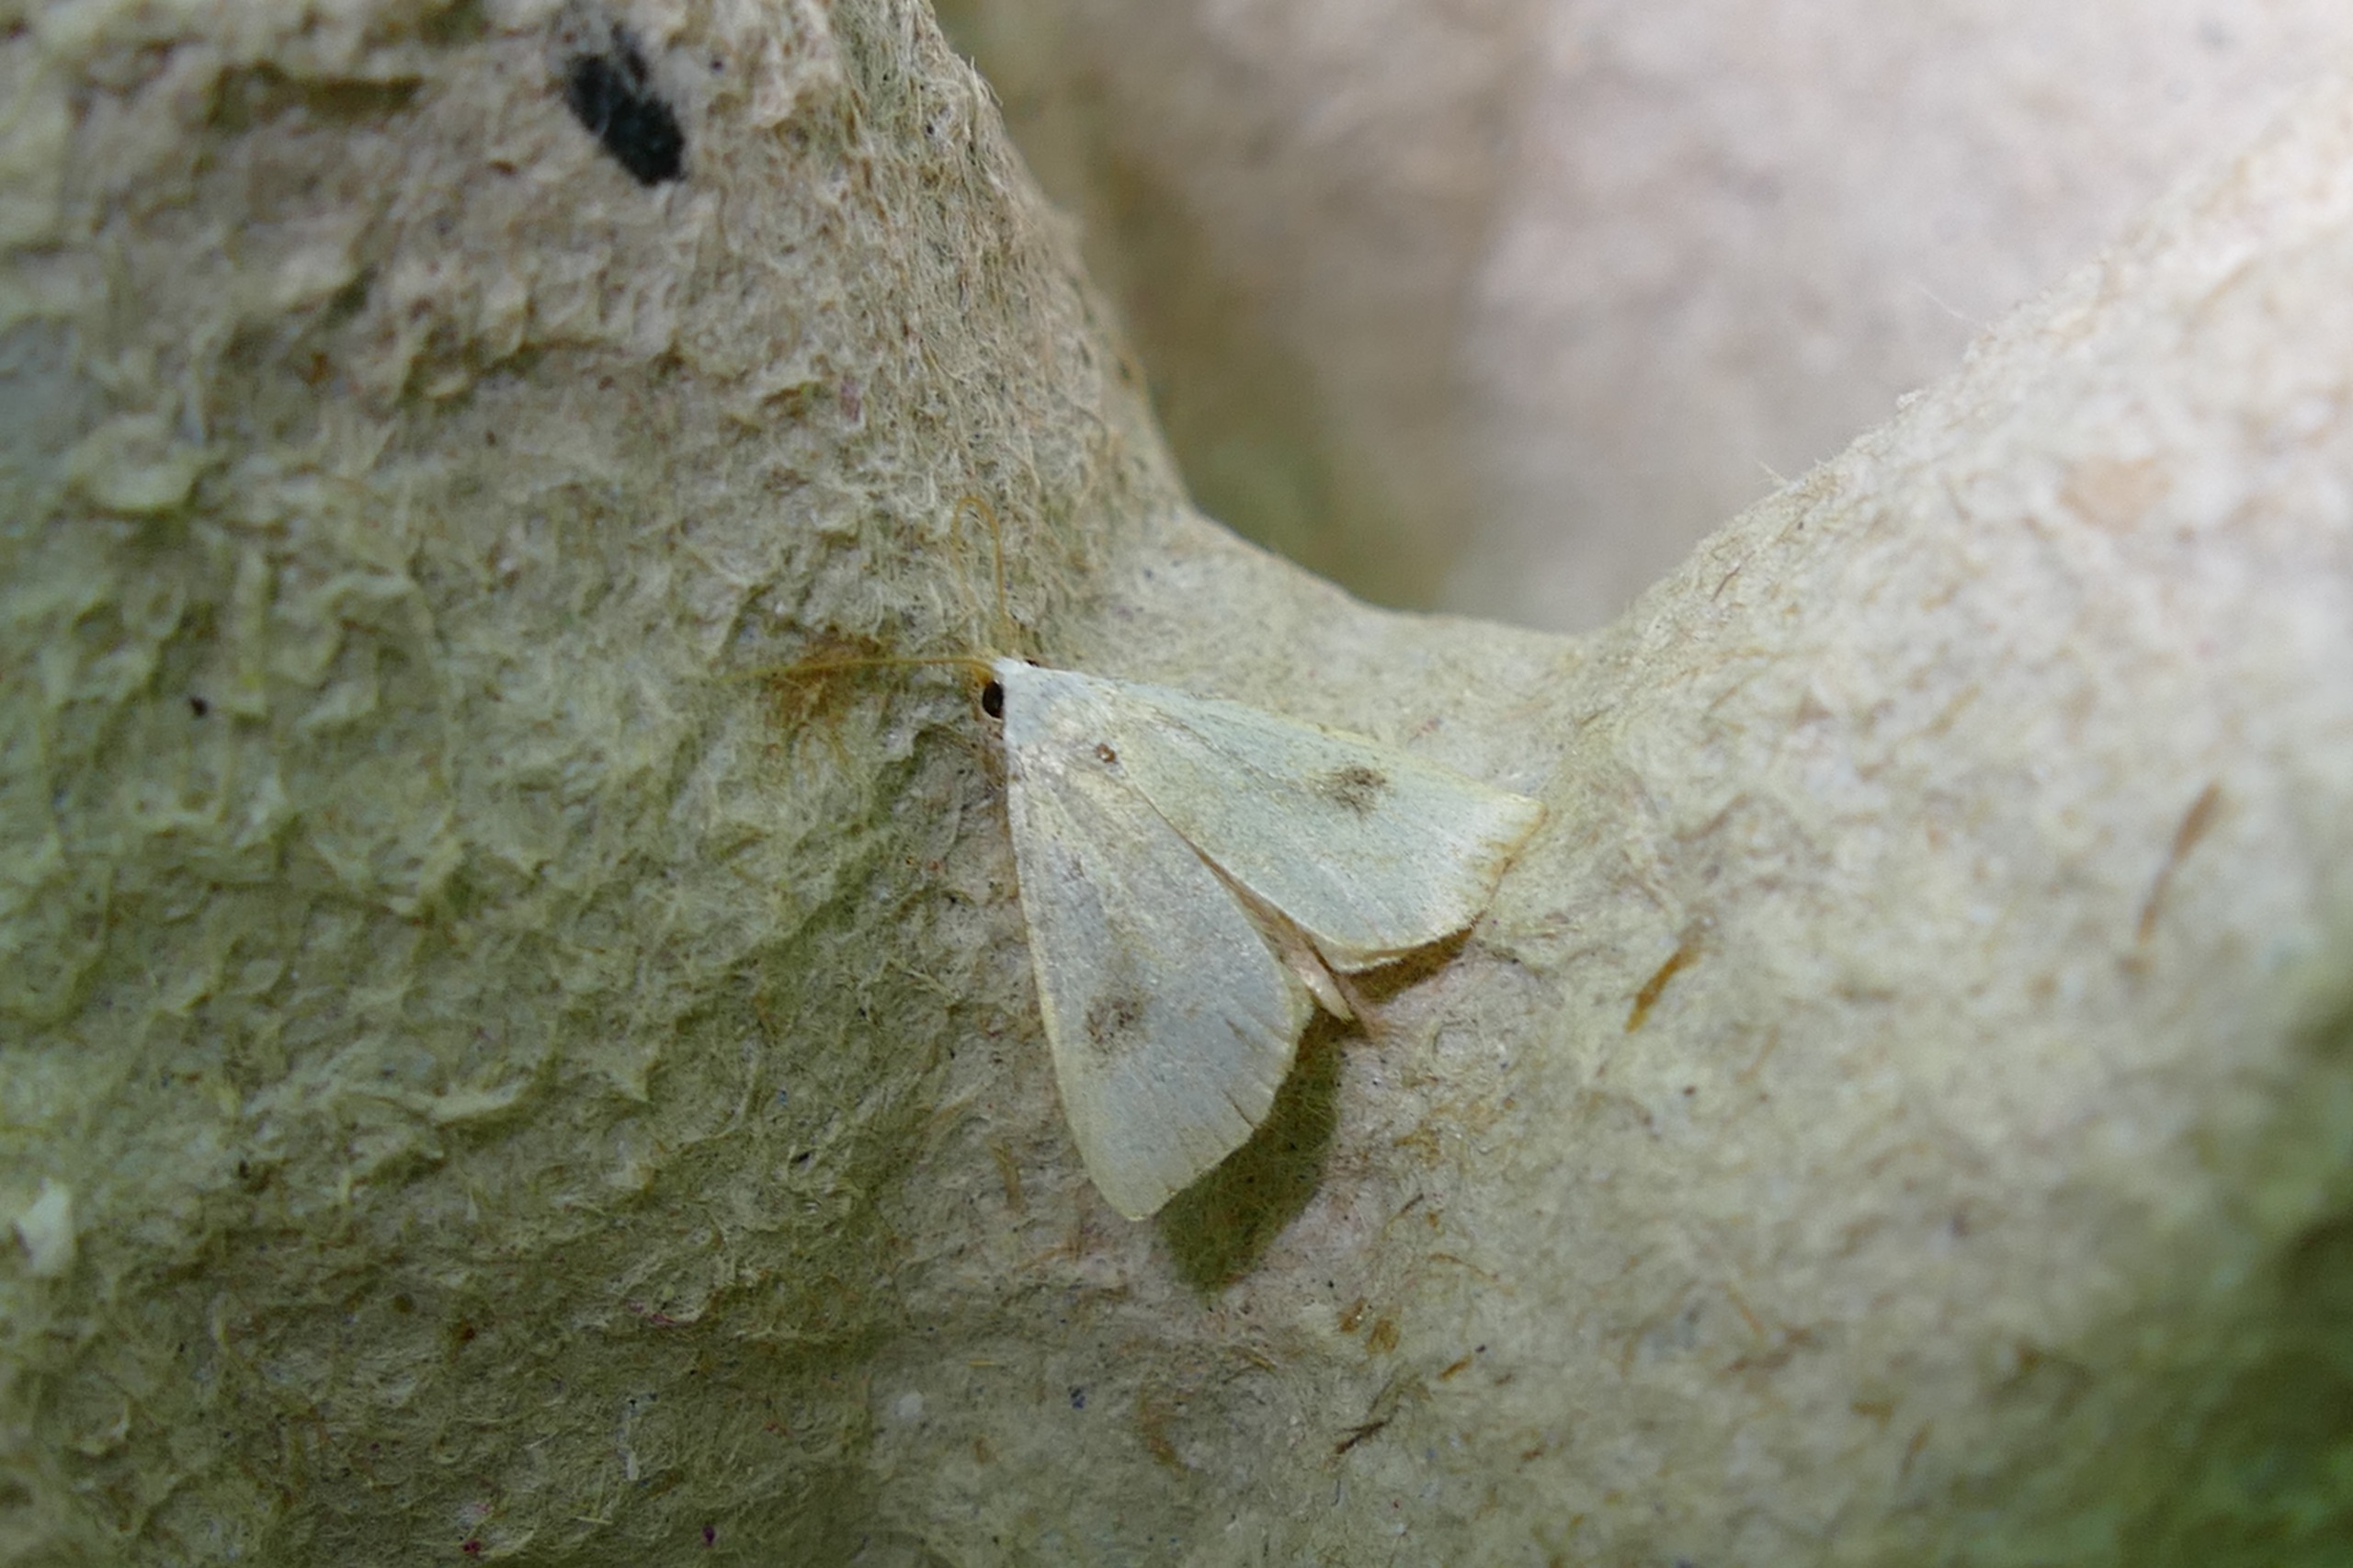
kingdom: Animalia
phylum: Arthropoda
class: Insecta
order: Lepidoptera
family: Erebidae
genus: Rivula
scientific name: Rivula sericealis
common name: Lille å-ugle
